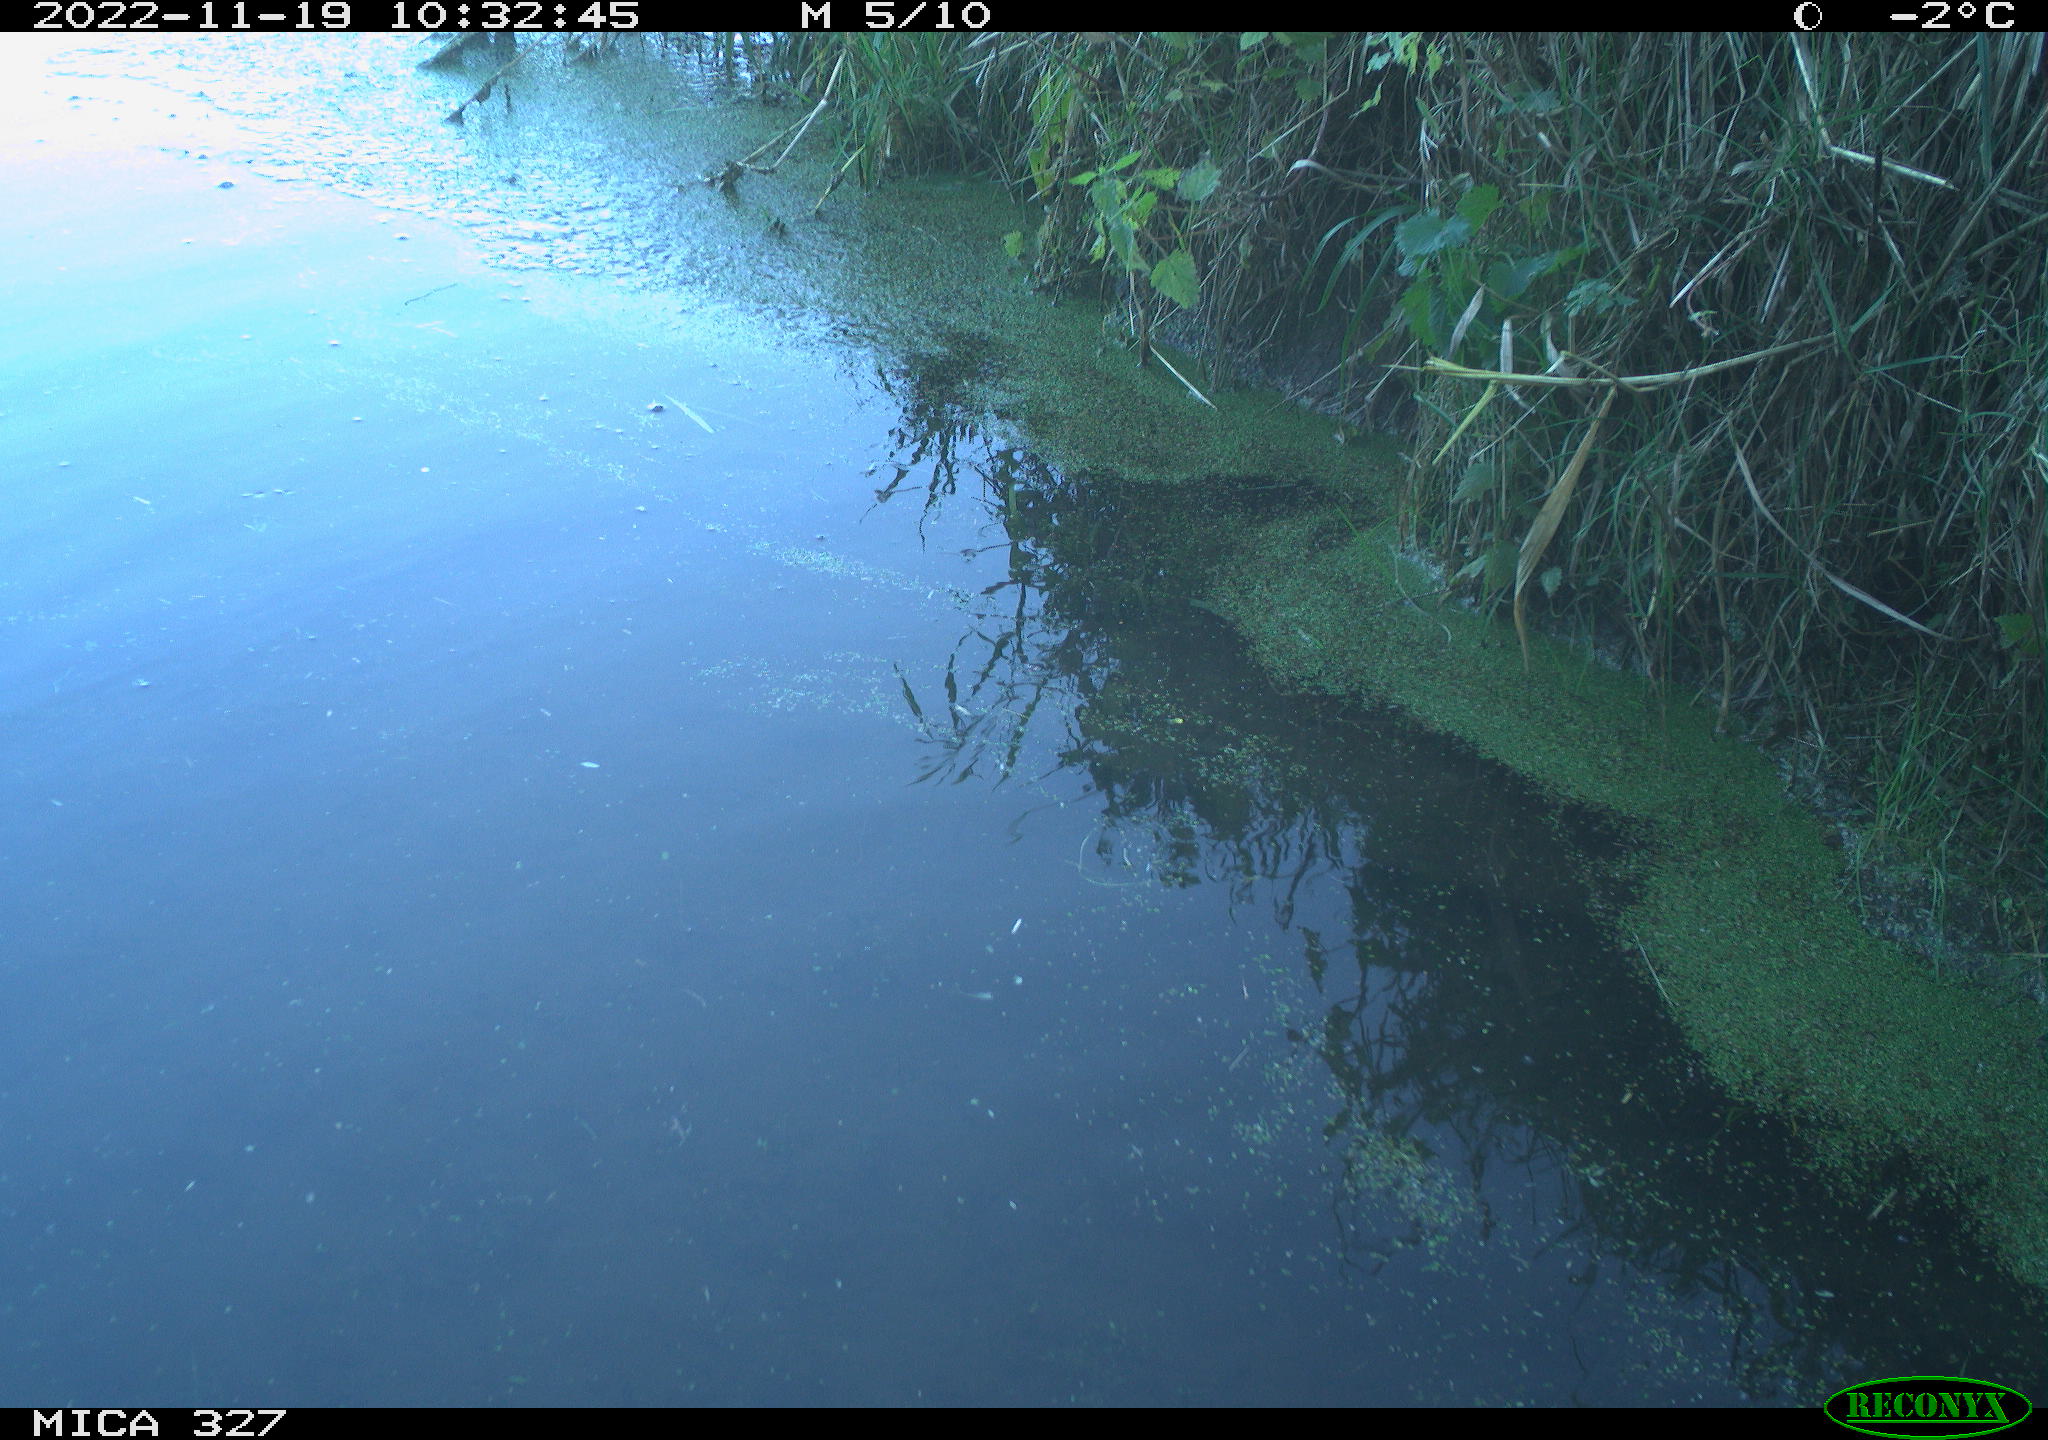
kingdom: Animalia
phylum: Chordata
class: Aves
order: Gruiformes
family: Rallidae
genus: Gallinula
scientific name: Gallinula chloropus
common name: Common moorhen
